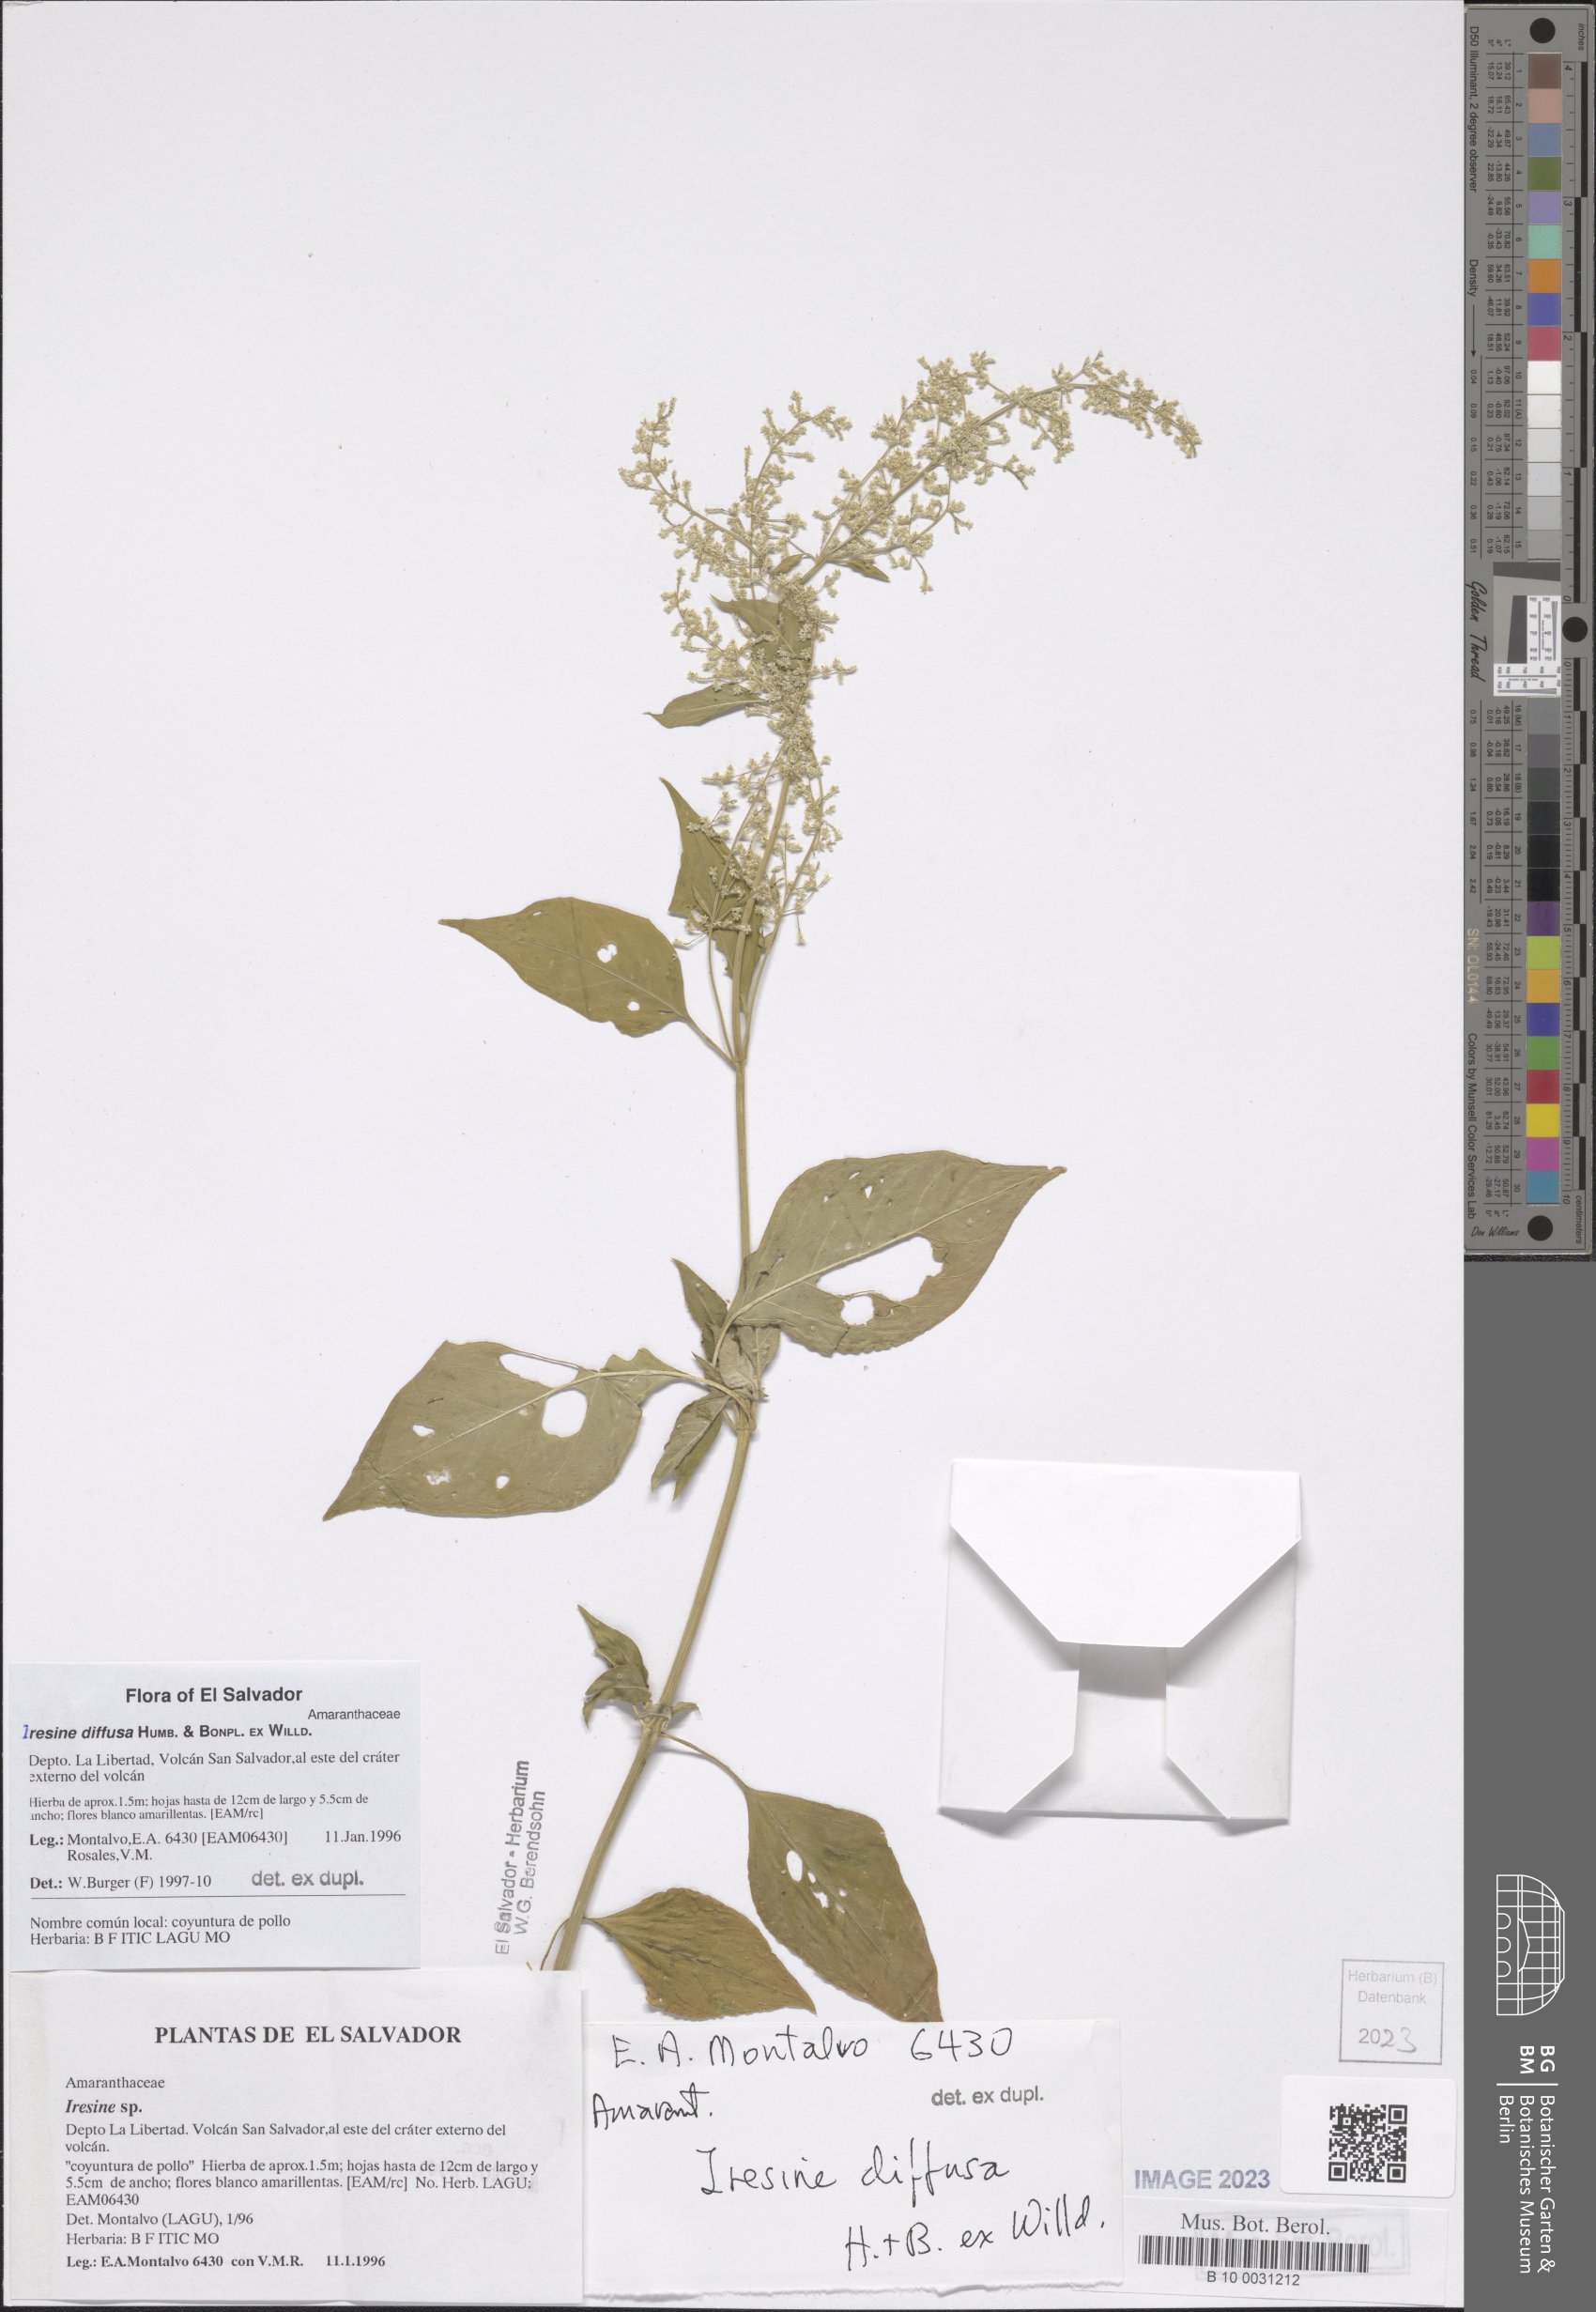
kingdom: Plantae
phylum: Tracheophyta
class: Magnoliopsida
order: Caryophyllales
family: Amaranthaceae
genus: Iresine
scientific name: Iresine diffusa
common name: Juba's-bush
